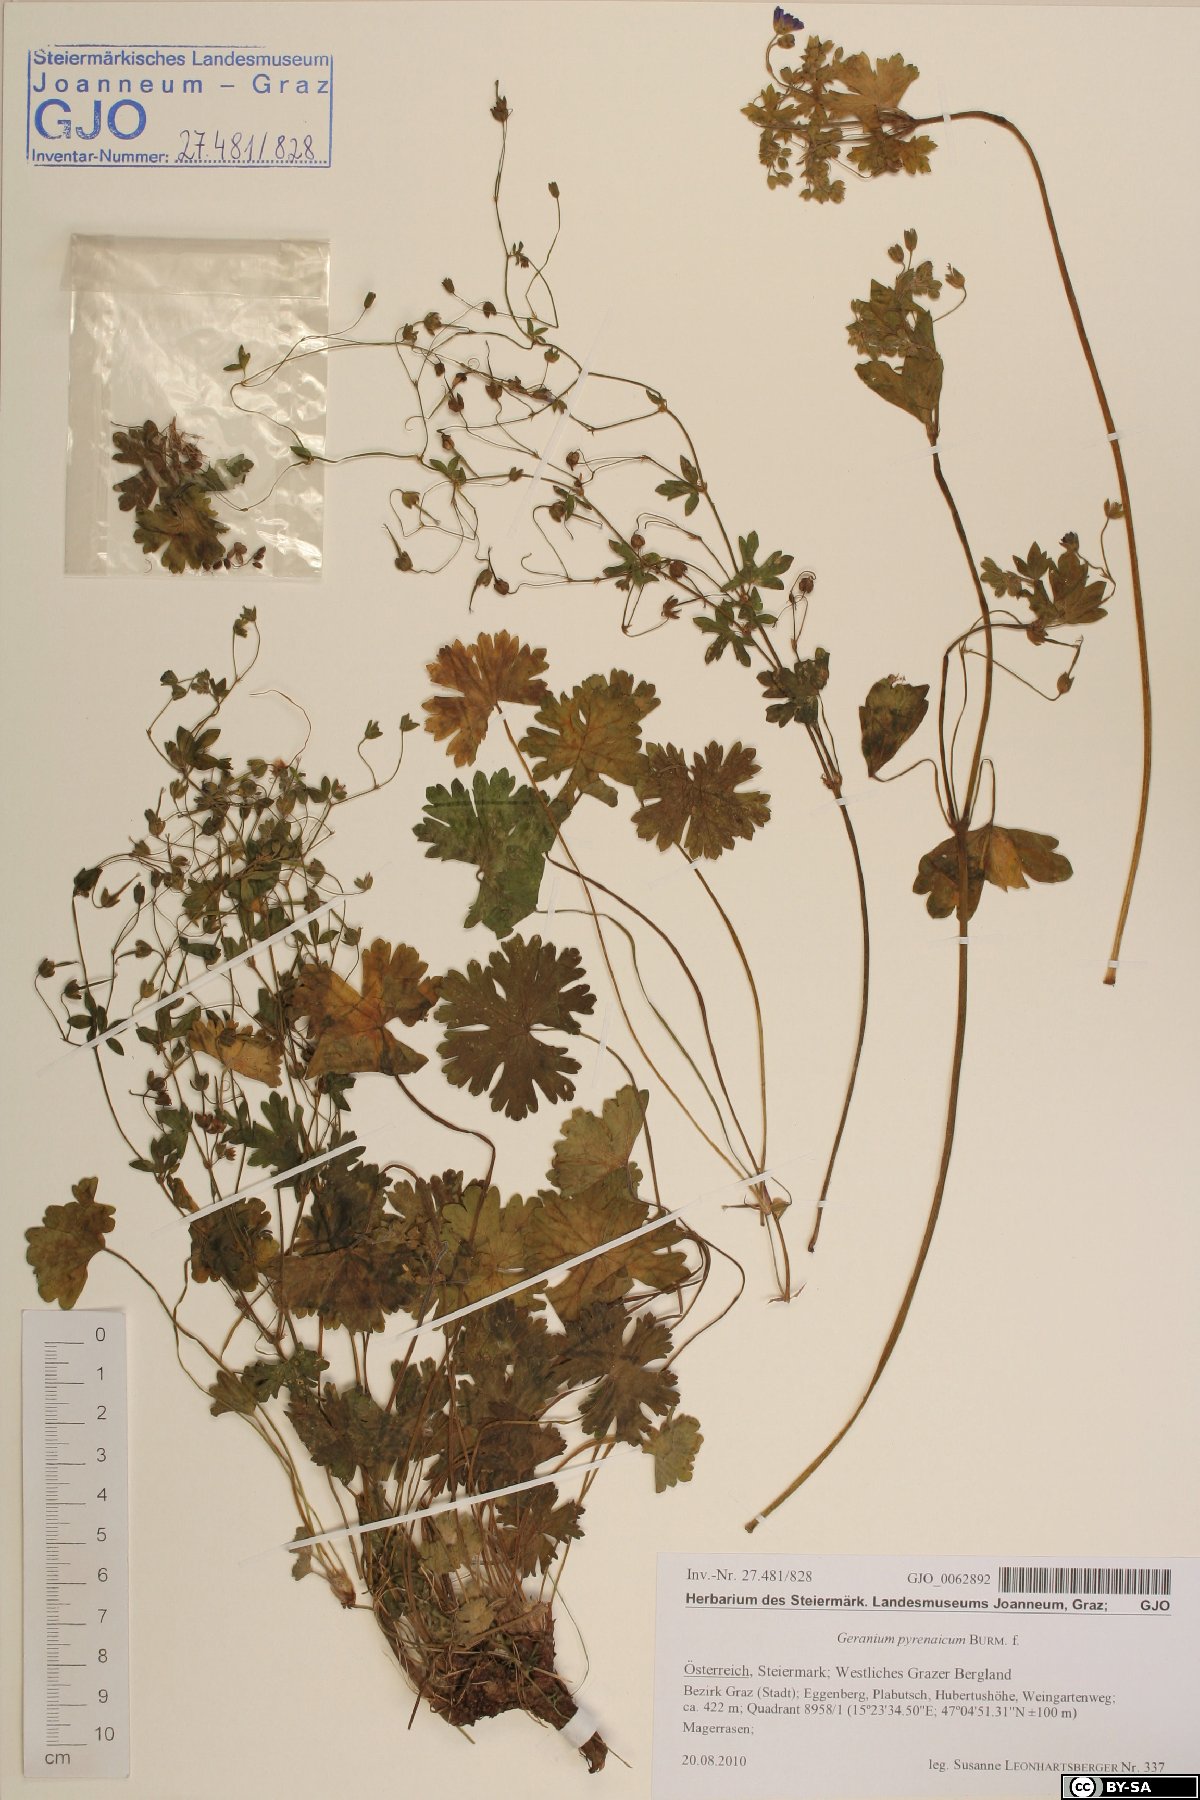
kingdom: Plantae
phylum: Tracheophyta
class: Magnoliopsida
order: Geraniales
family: Geraniaceae
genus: Geranium
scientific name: Geranium pyrenaicum
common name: Hedgerow crane's-bill
